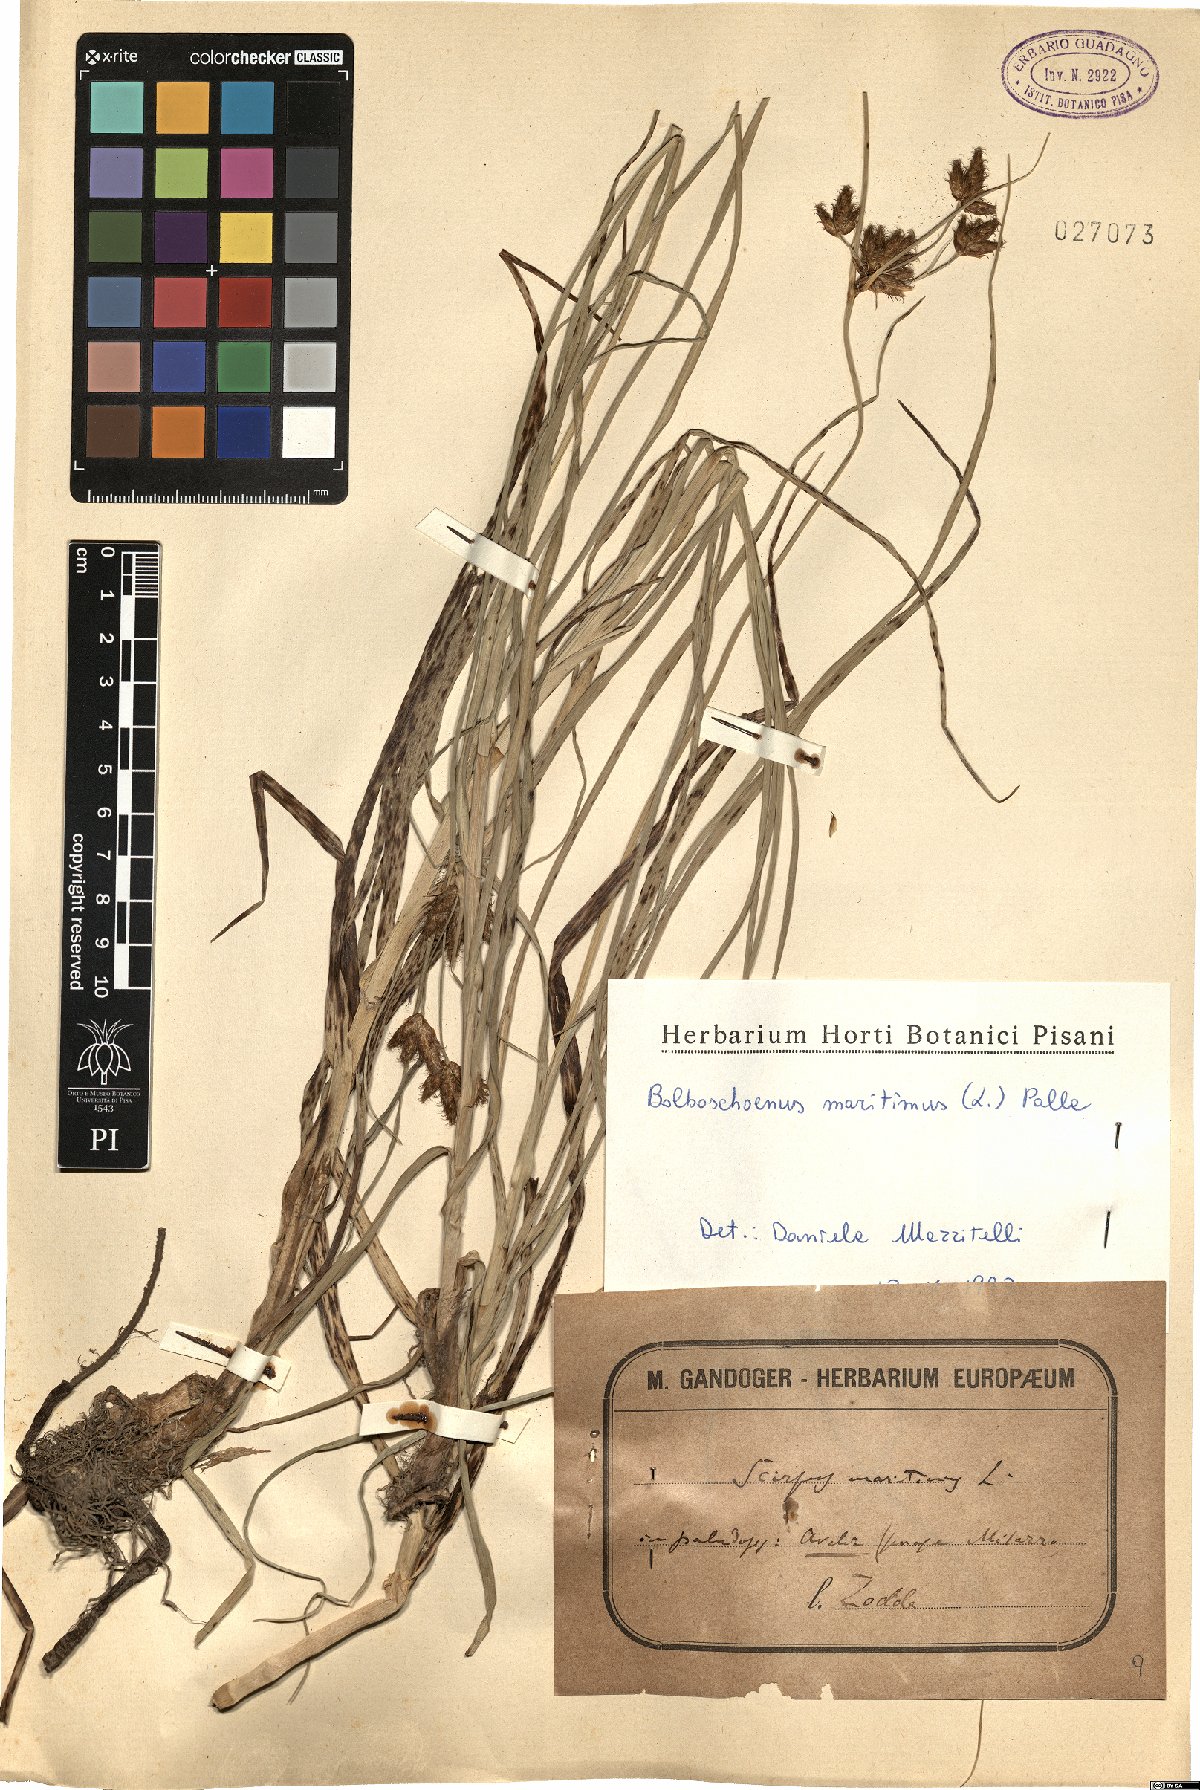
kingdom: Plantae
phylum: Tracheophyta
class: Liliopsida
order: Poales
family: Cyperaceae
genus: Bolboschoenus
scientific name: Bolboschoenus maritimus
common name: Sea club-rush
